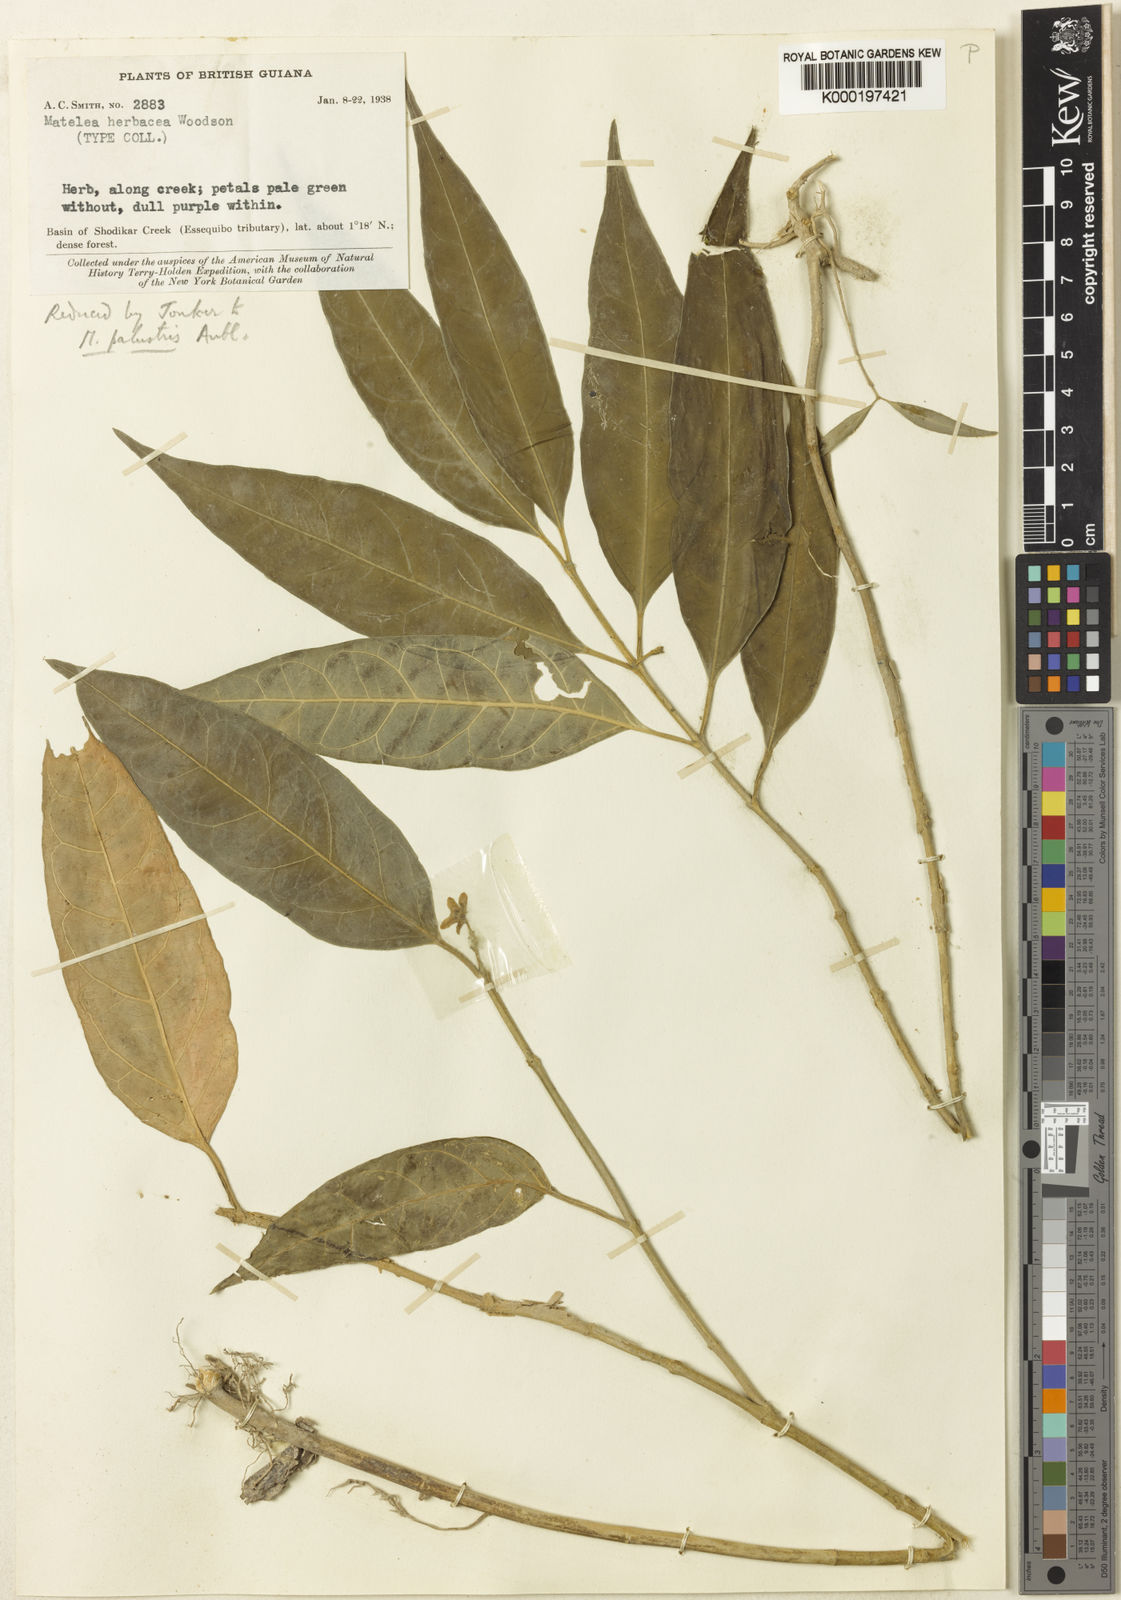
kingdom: Plantae
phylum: Tracheophyta
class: Magnoliopsida
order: Gentianales
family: Apocynaceae
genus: Matelea
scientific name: Matelea palustris
